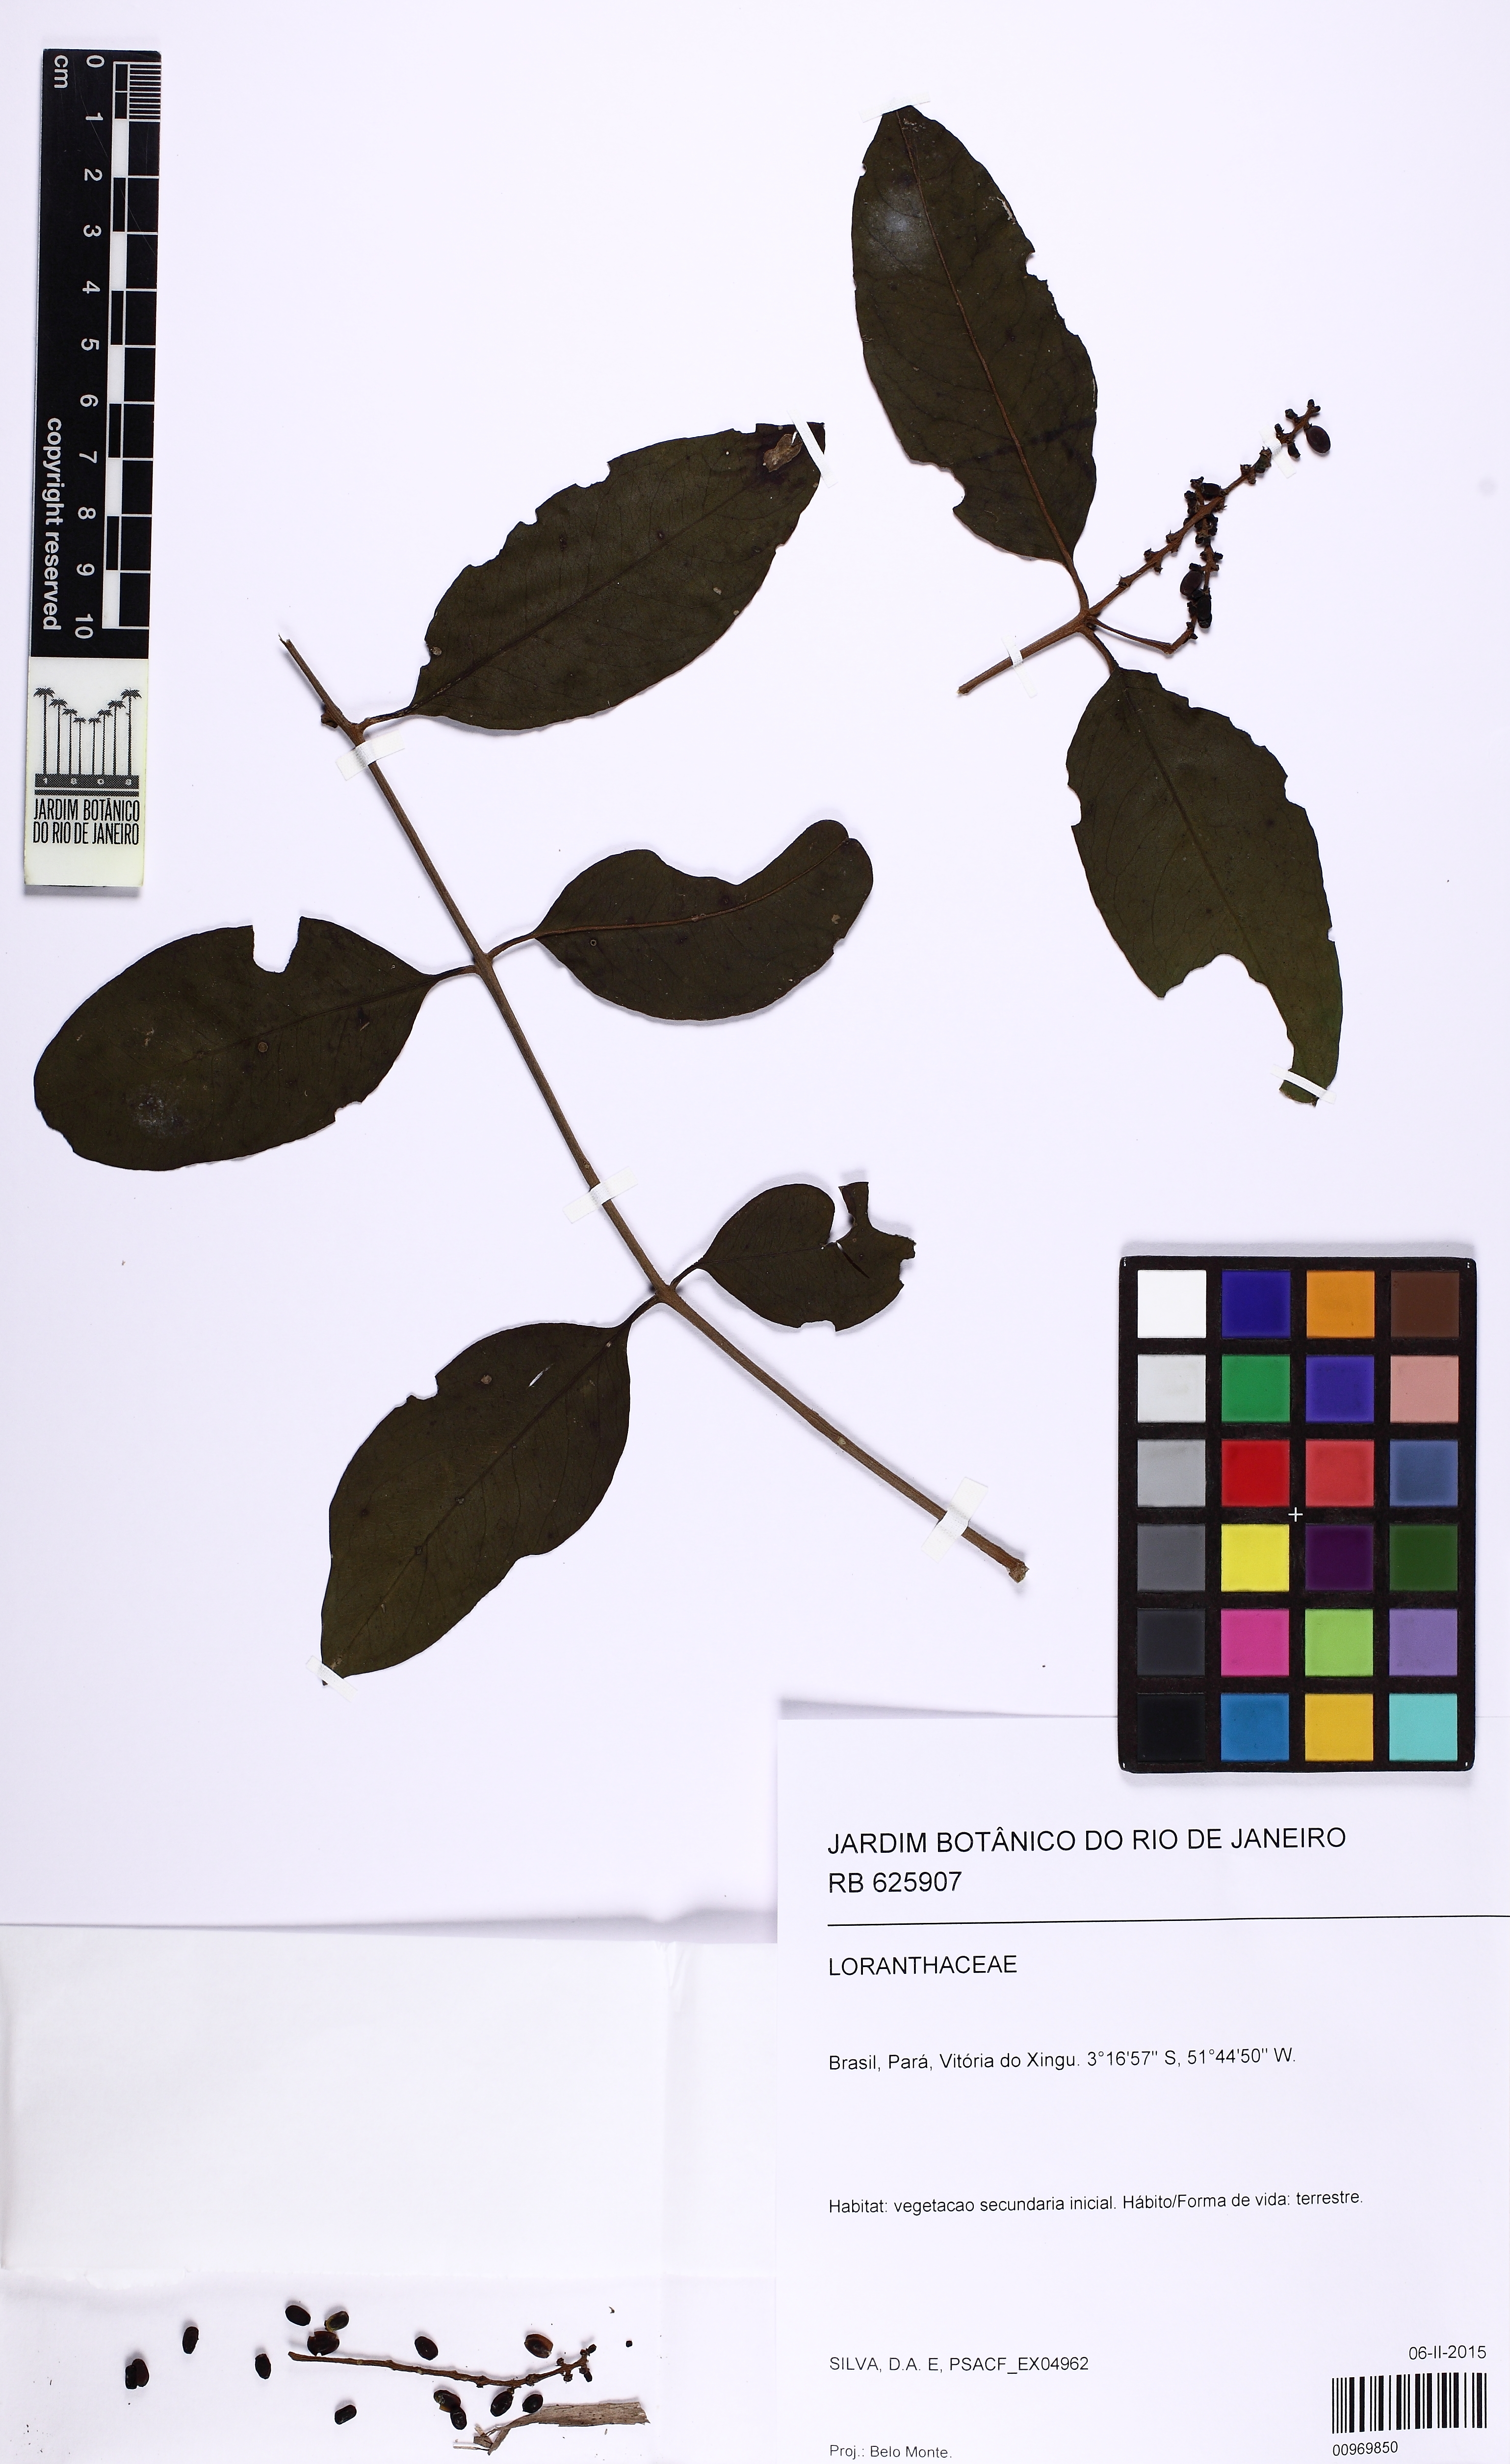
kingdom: Plantae
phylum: Tracheophyta
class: Magnoliopsida
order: Santalales
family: Loranthaceae
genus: Passovia
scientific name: Passovia pyrifolia
